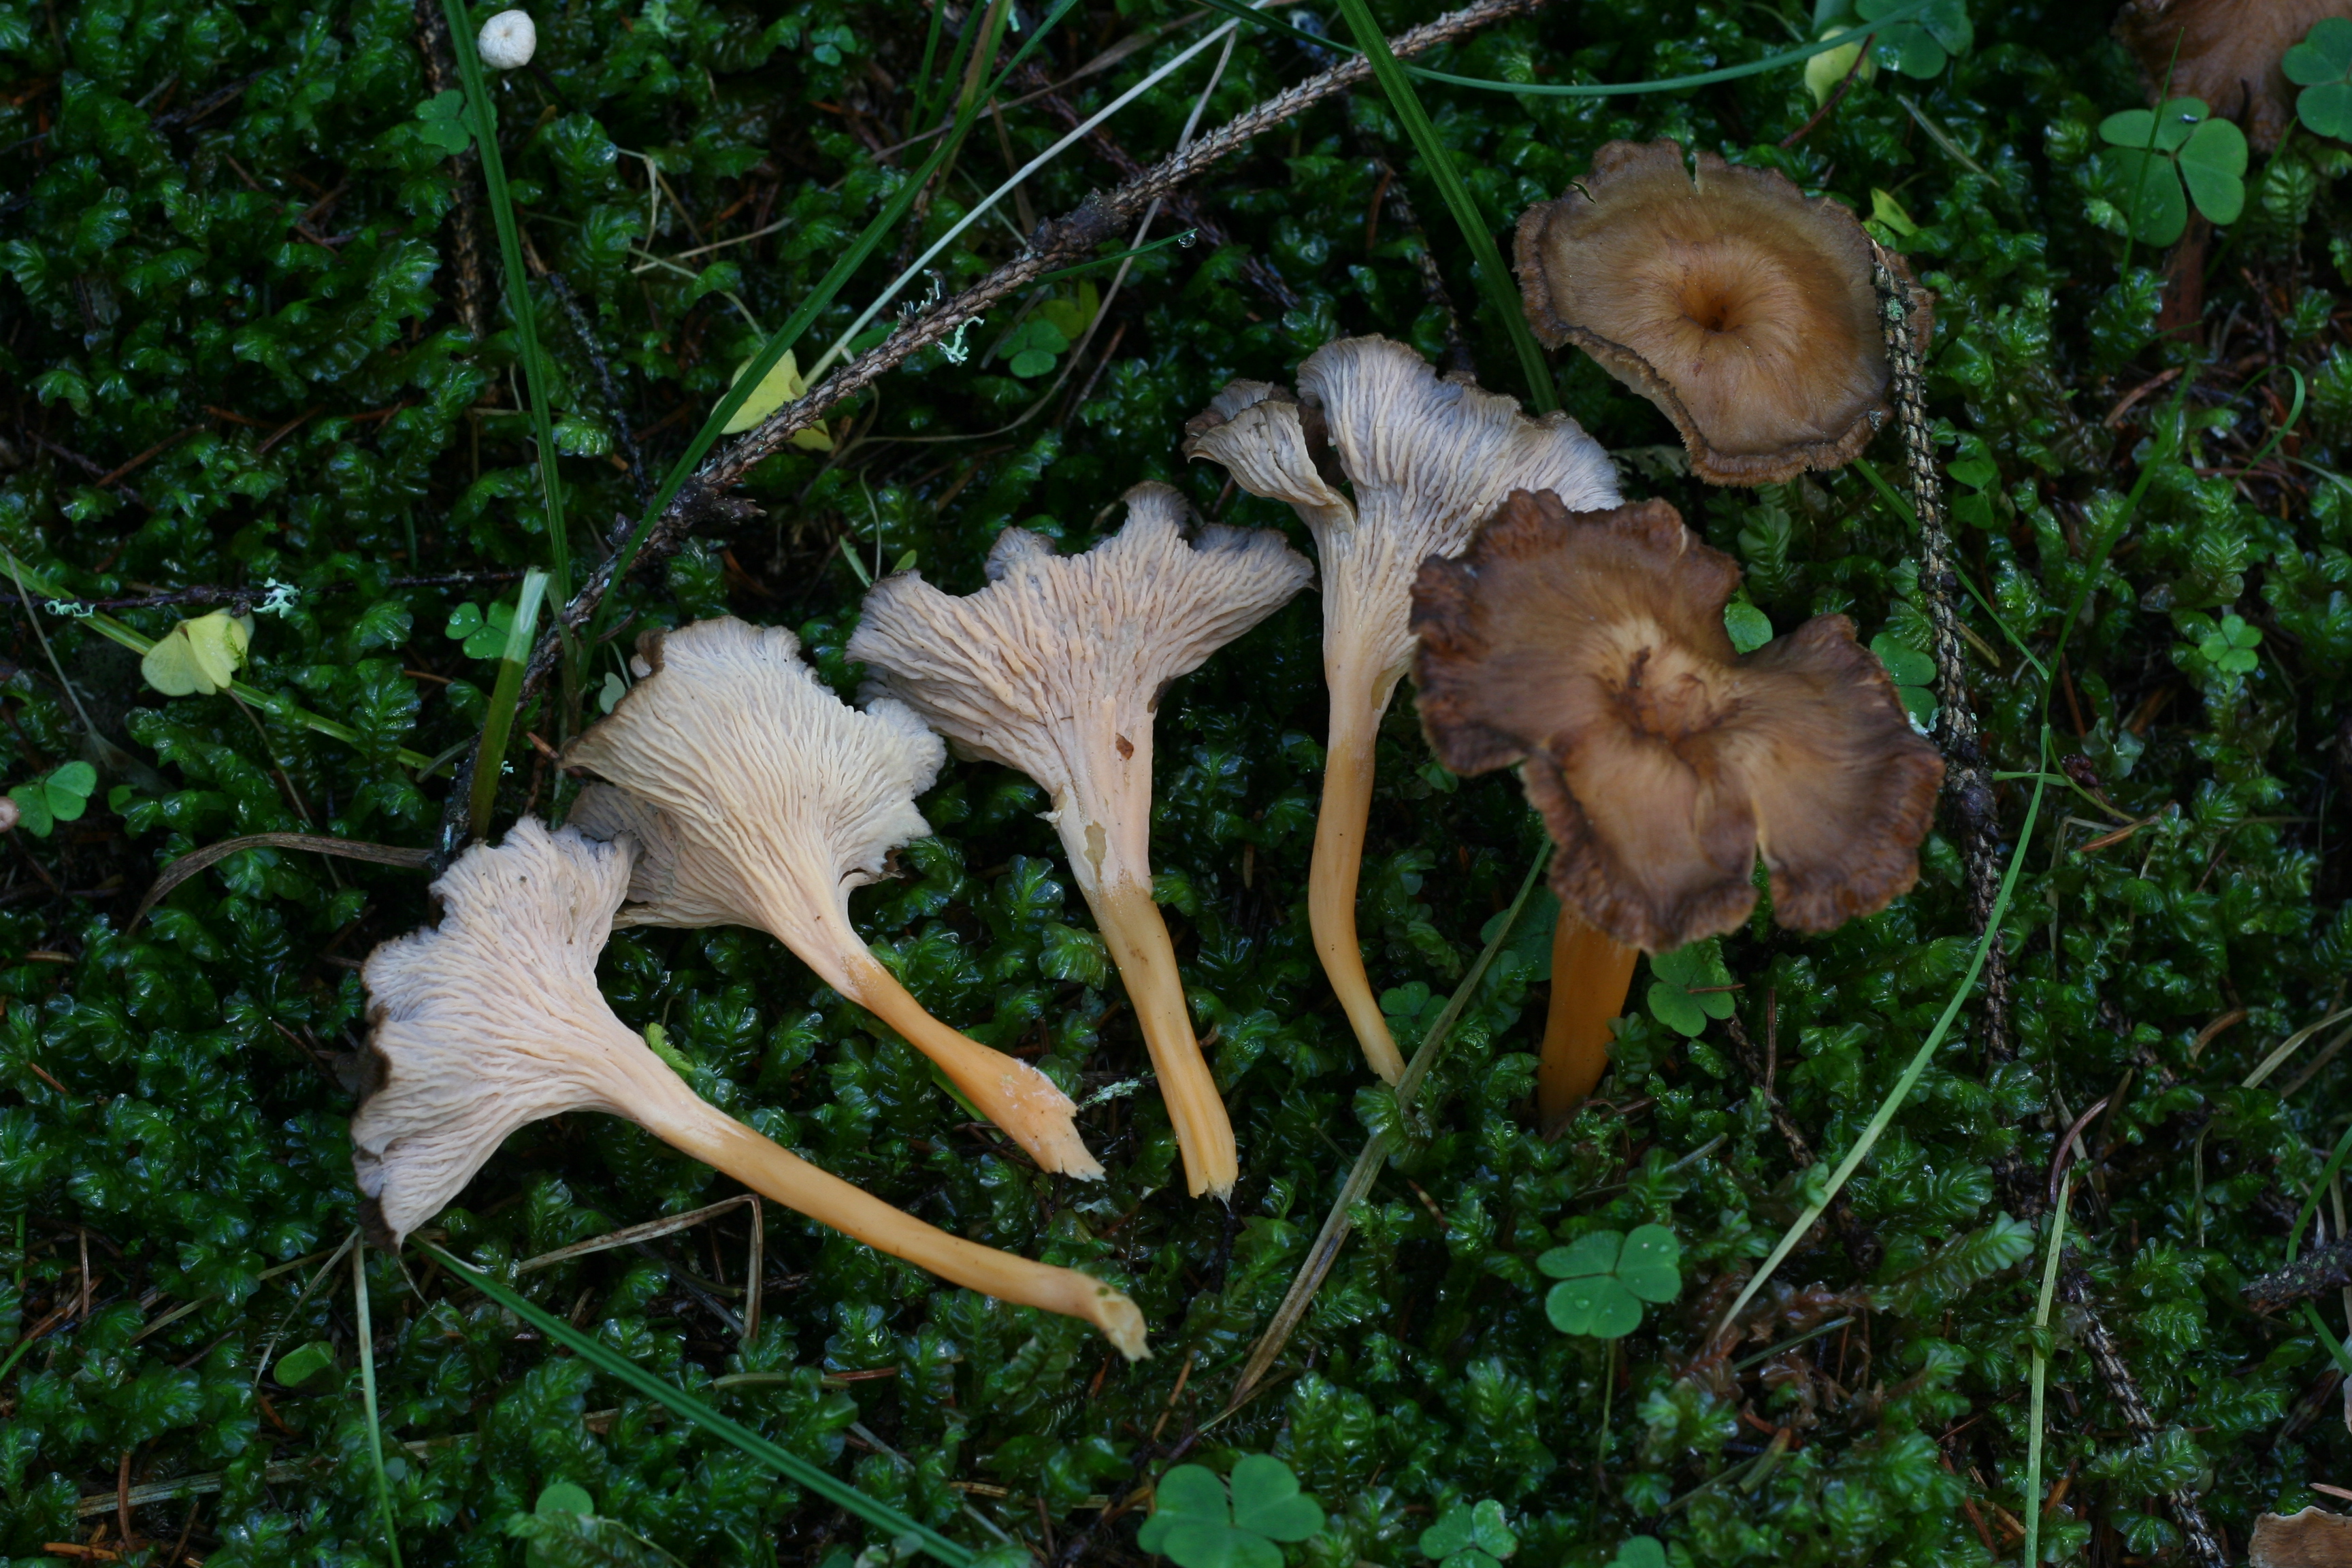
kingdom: Fungi
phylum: Basidiomycota
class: Agaricomycetes
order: Cantharellales
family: Hydnaceae
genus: Craterellus
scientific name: Craterellus lutescens
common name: Golden chanterelle
